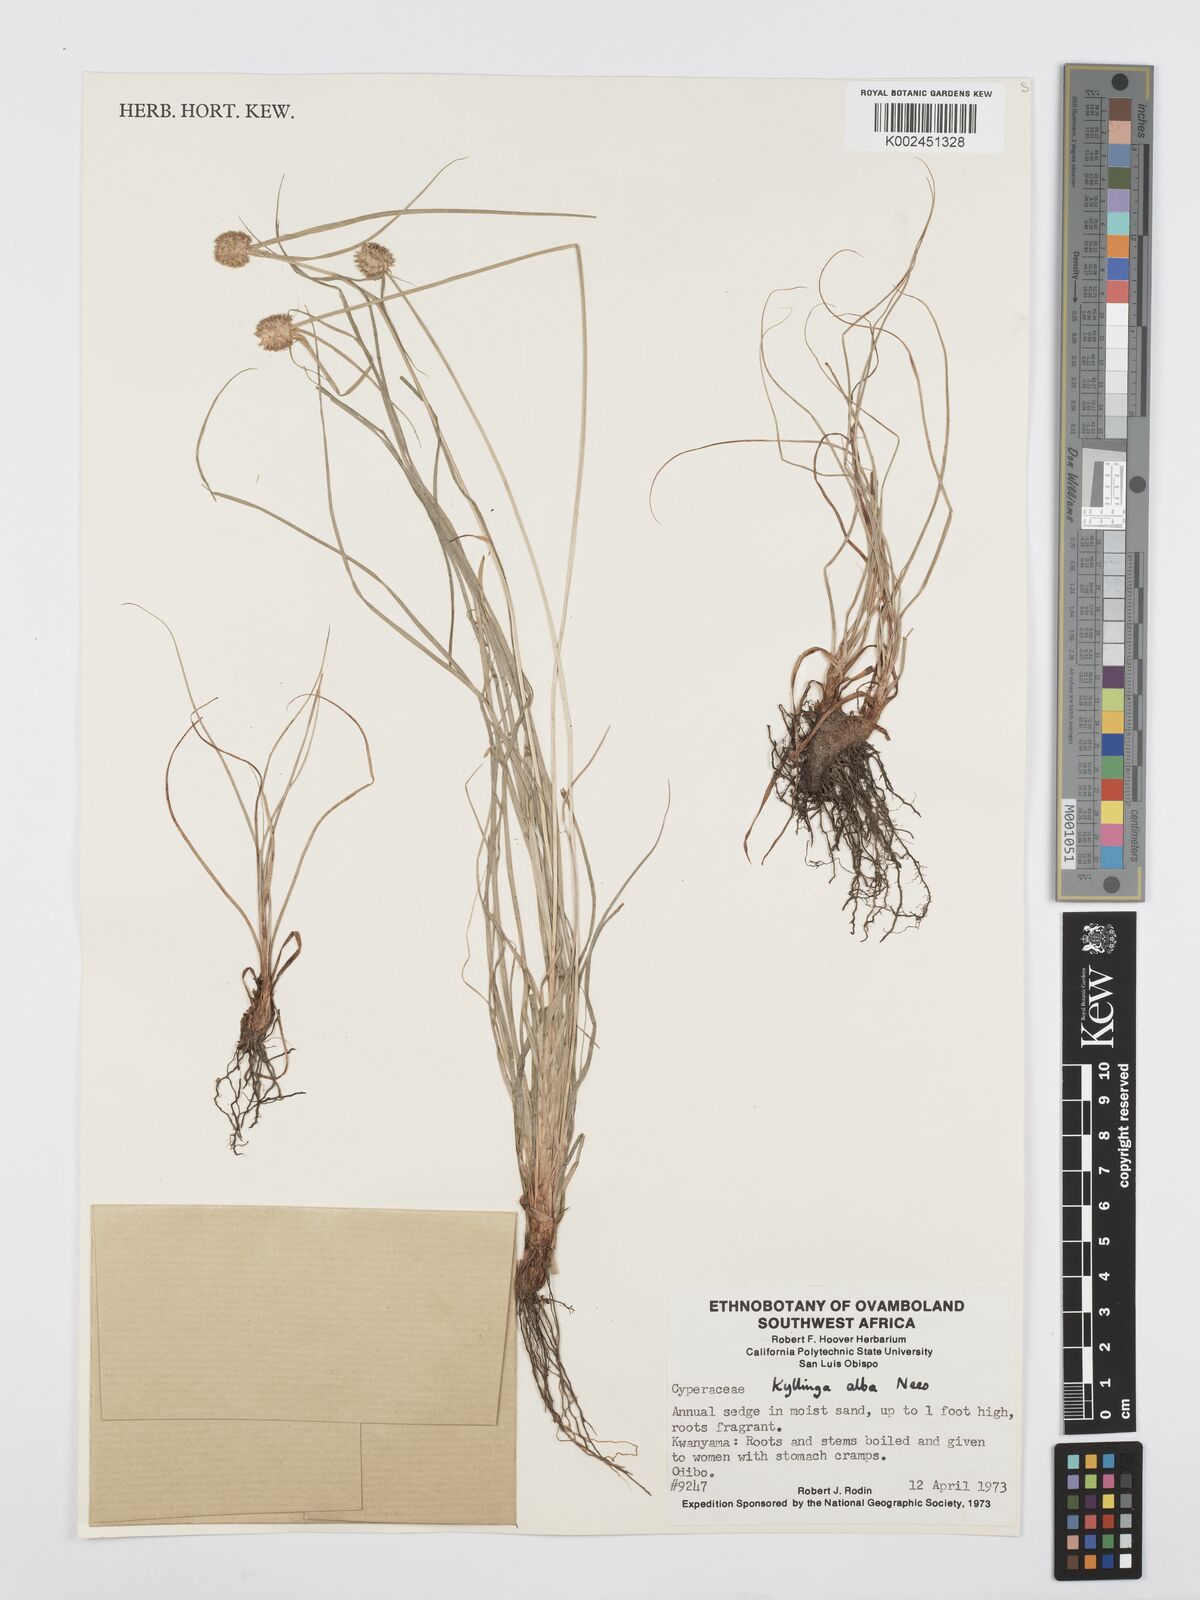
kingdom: Plantae
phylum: Tracheophyta
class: Liliopsida
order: Poales
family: Cyperaceae
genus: Cyperus
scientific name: Cyperus
